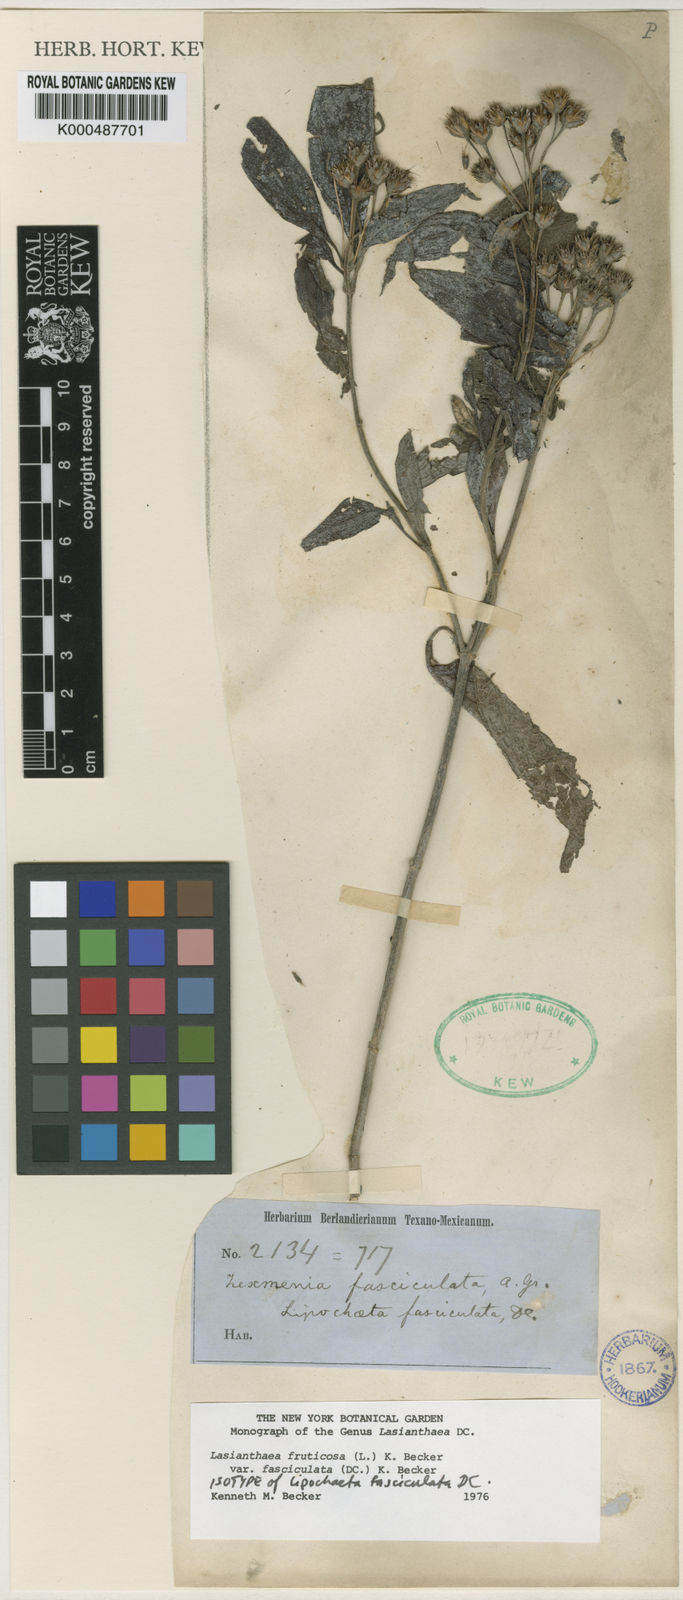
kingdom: Plantae
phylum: Tracheophyta
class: Magnoliopsida
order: Asterales
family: Asteraceae
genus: Lasianthaea
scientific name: Lasianthaea fruticosa
